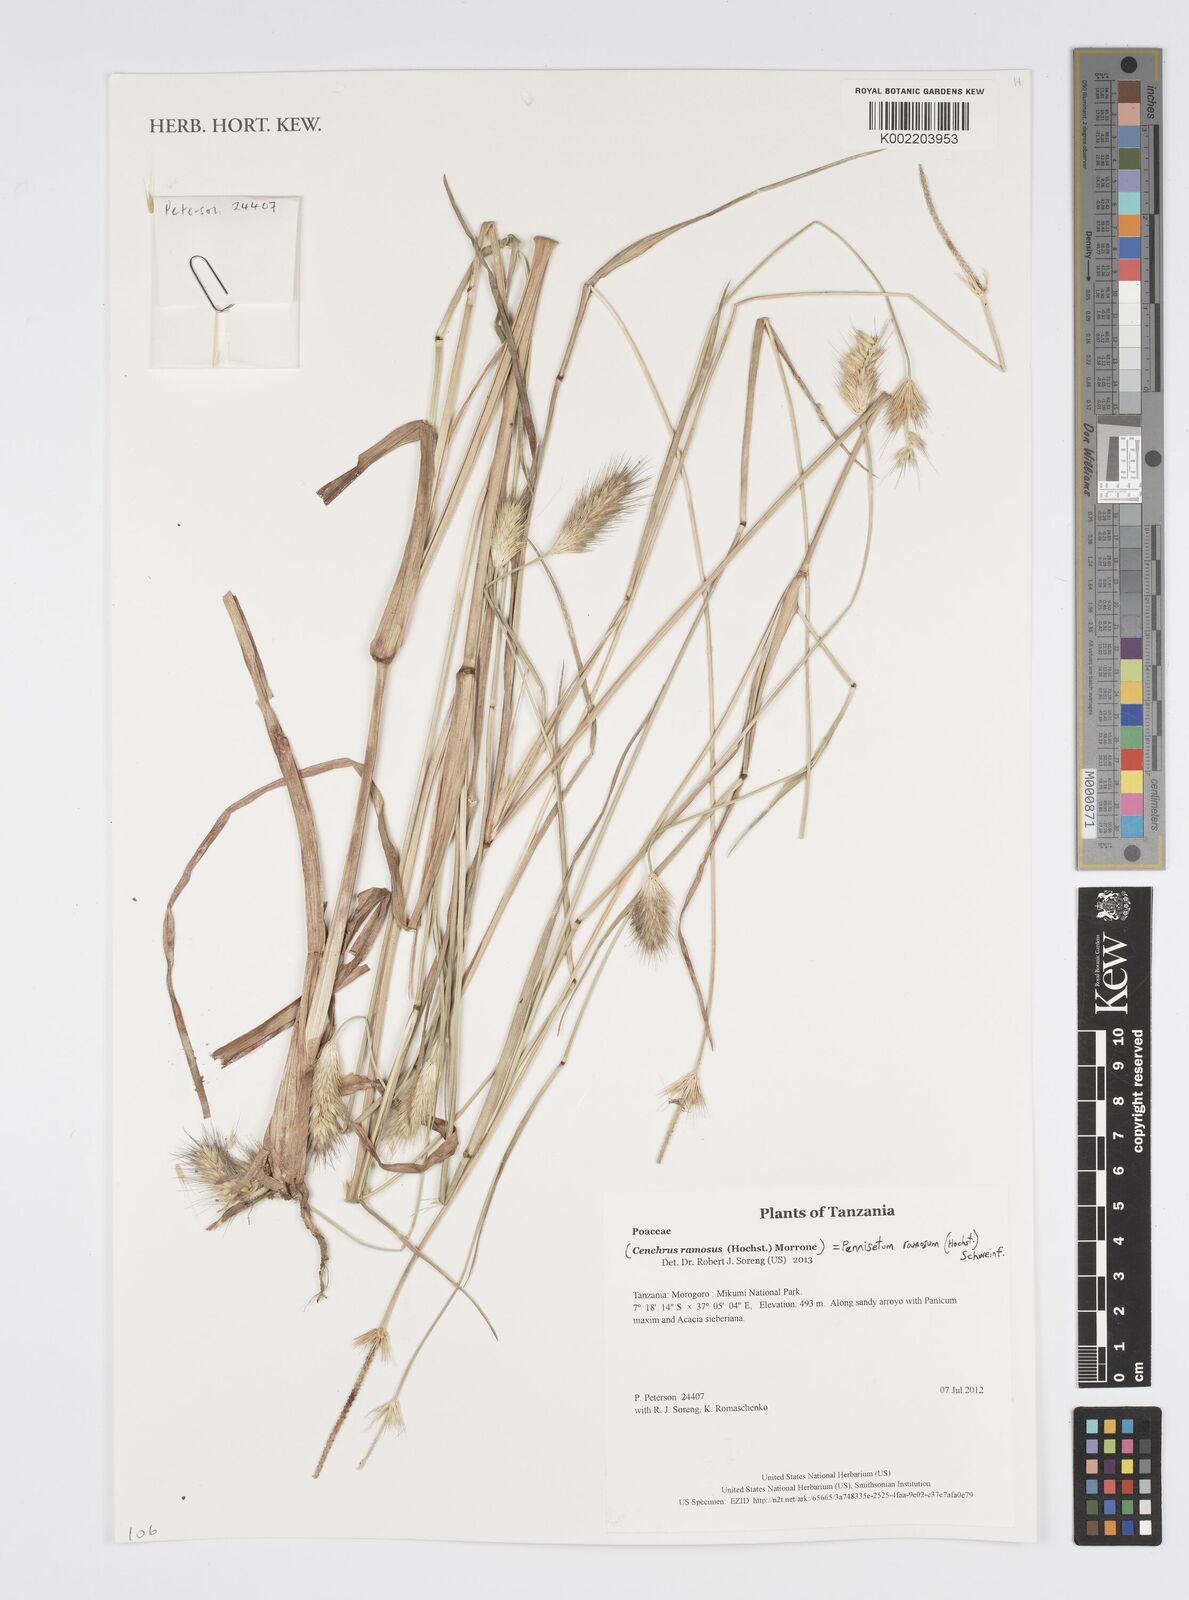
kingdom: Plantae
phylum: Tracheophyta
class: Liliopsida
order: Poales
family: Poaceae
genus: Cenchrus
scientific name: Cenchrus ramosus
